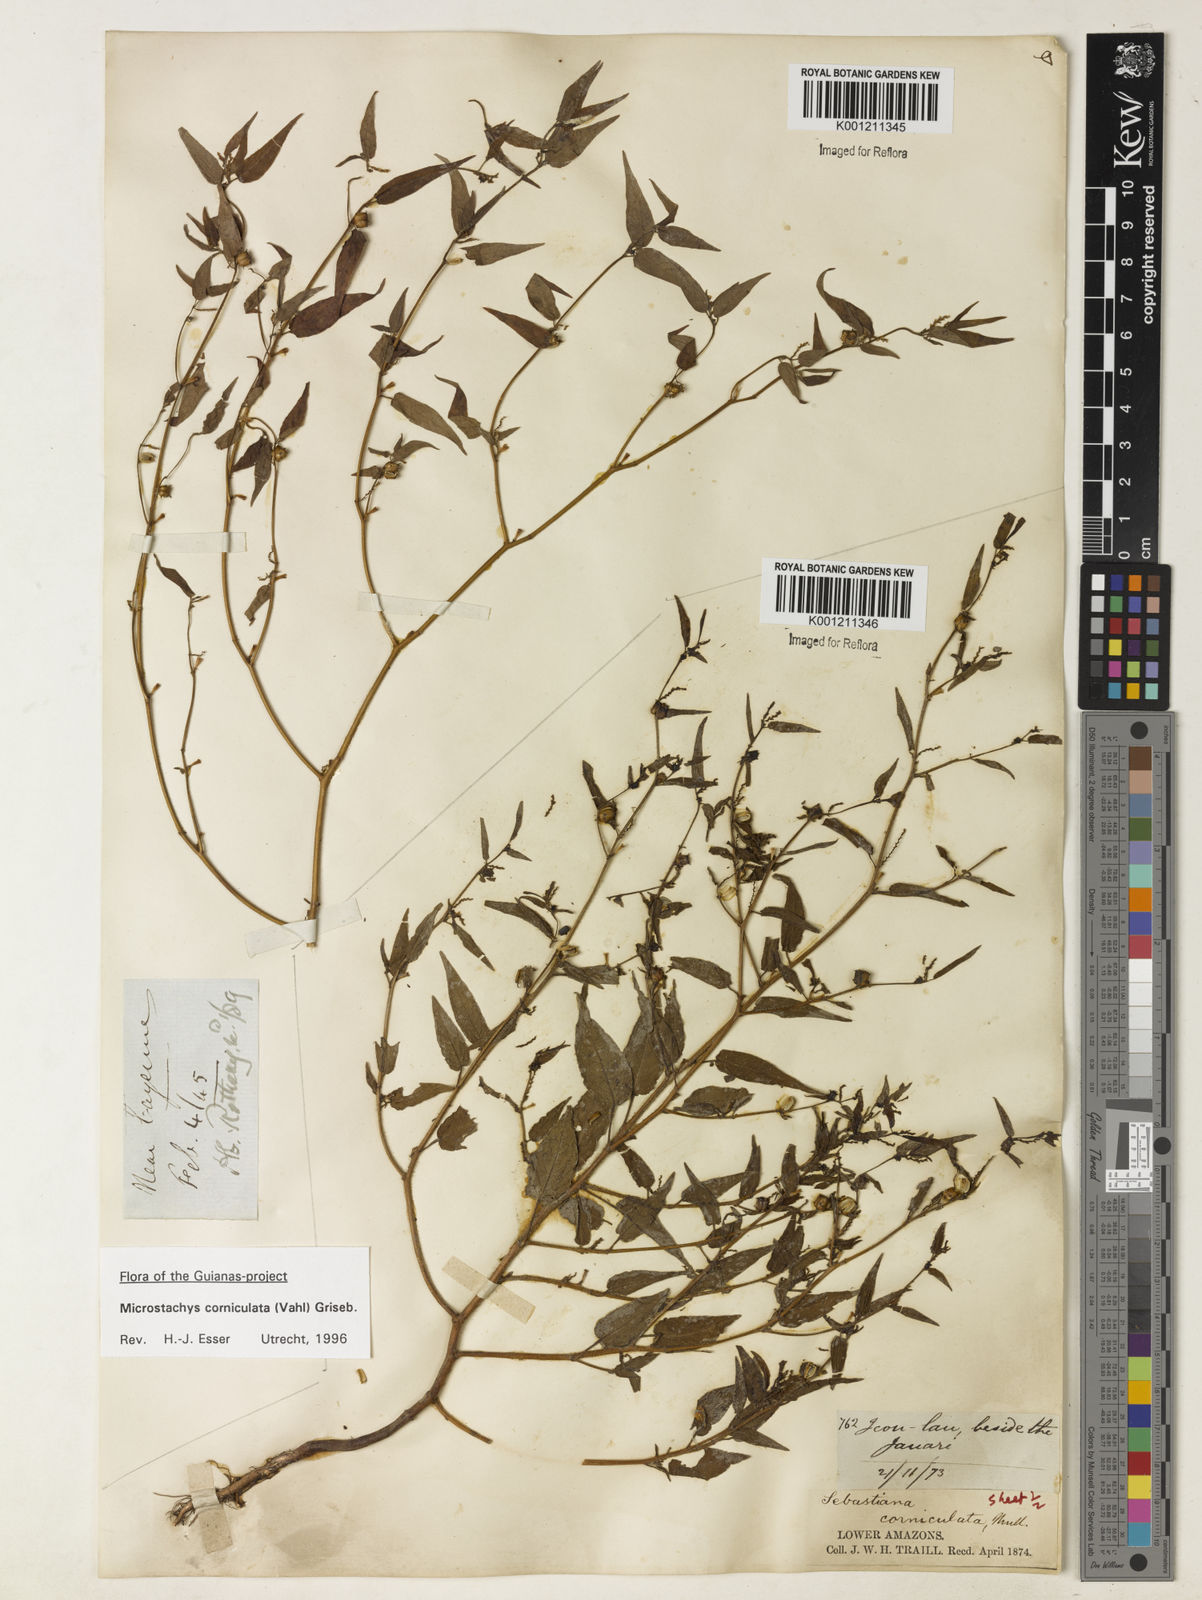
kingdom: Plantae
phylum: Tracheophyta
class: Magnoliopsida
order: Malpighiales
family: Euphorbiaceae
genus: Microstachys
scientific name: Microstachys corniculata
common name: Hato tejas
